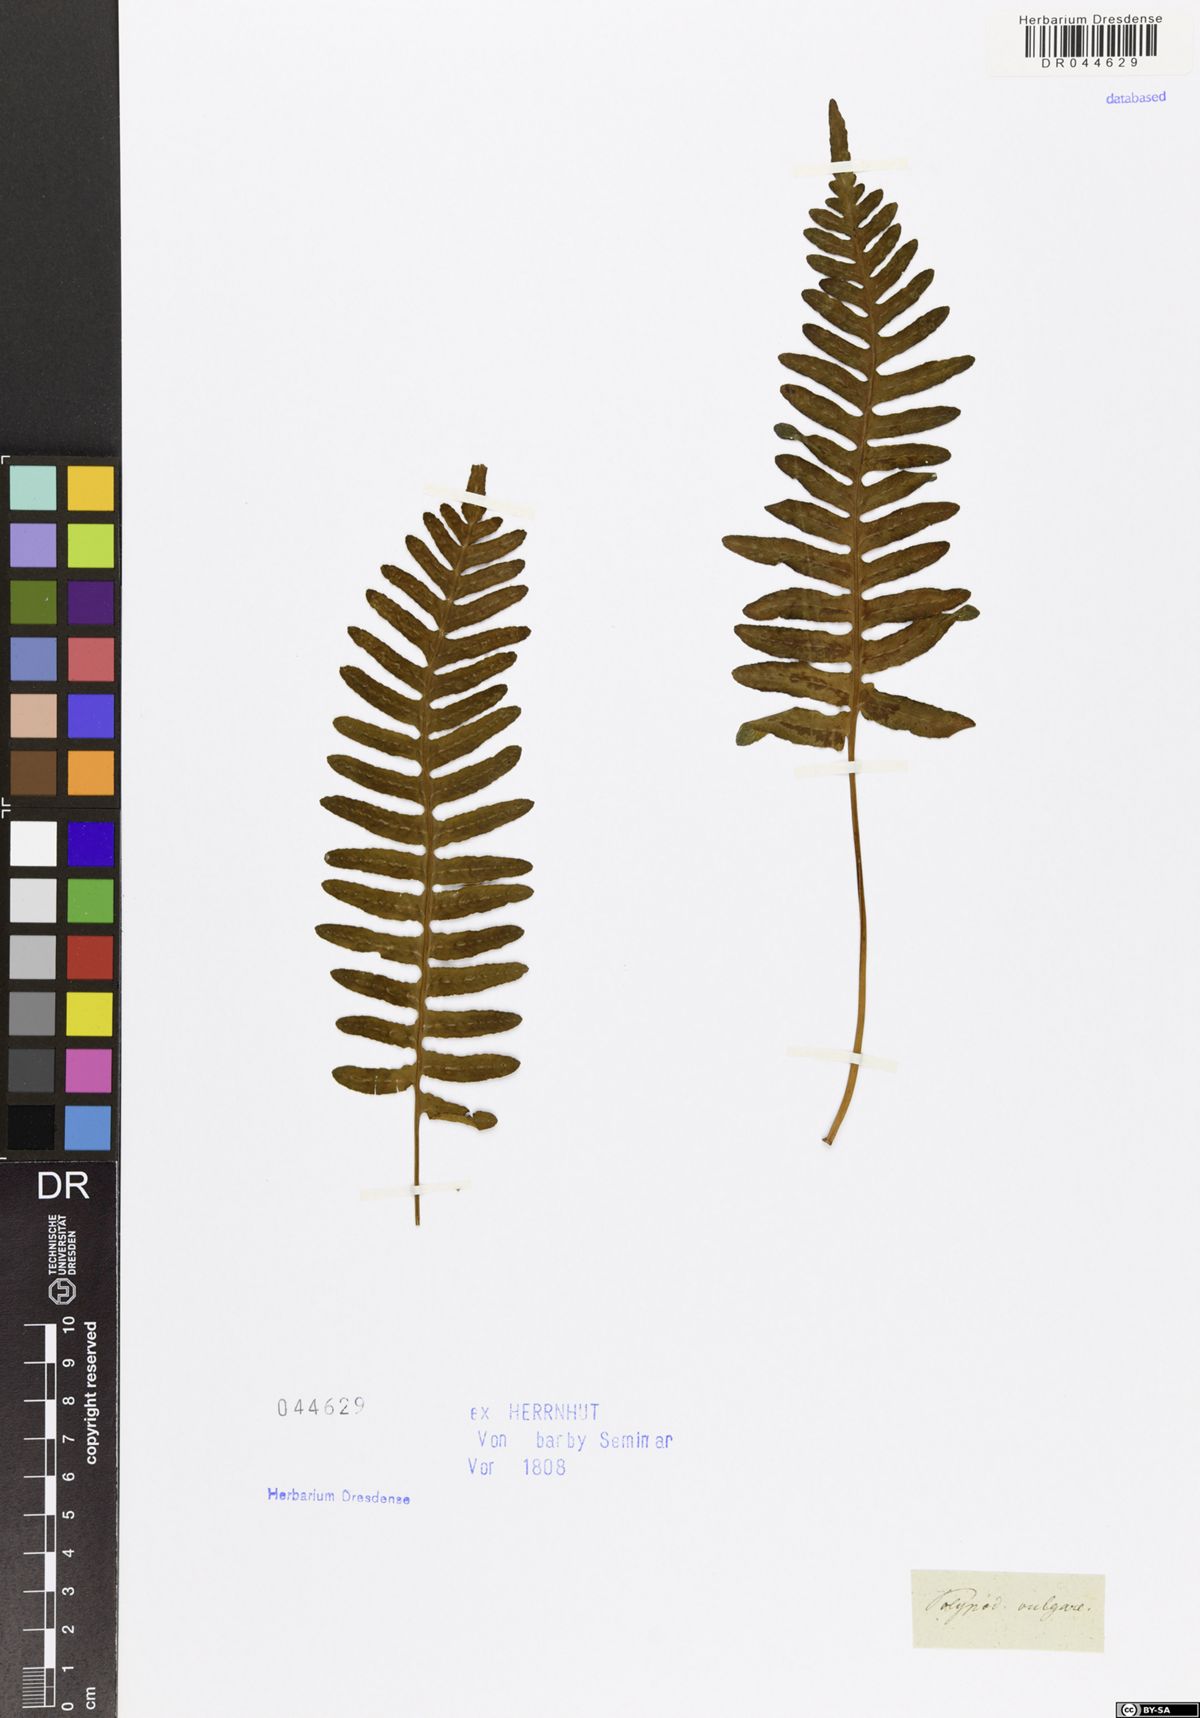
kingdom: Plantae
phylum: Tracheophyta
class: Polypodiopsida
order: Polypodiales
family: Polypodiaceae
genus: Polypodium
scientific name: Polypodium vulgare
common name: Common polypody
